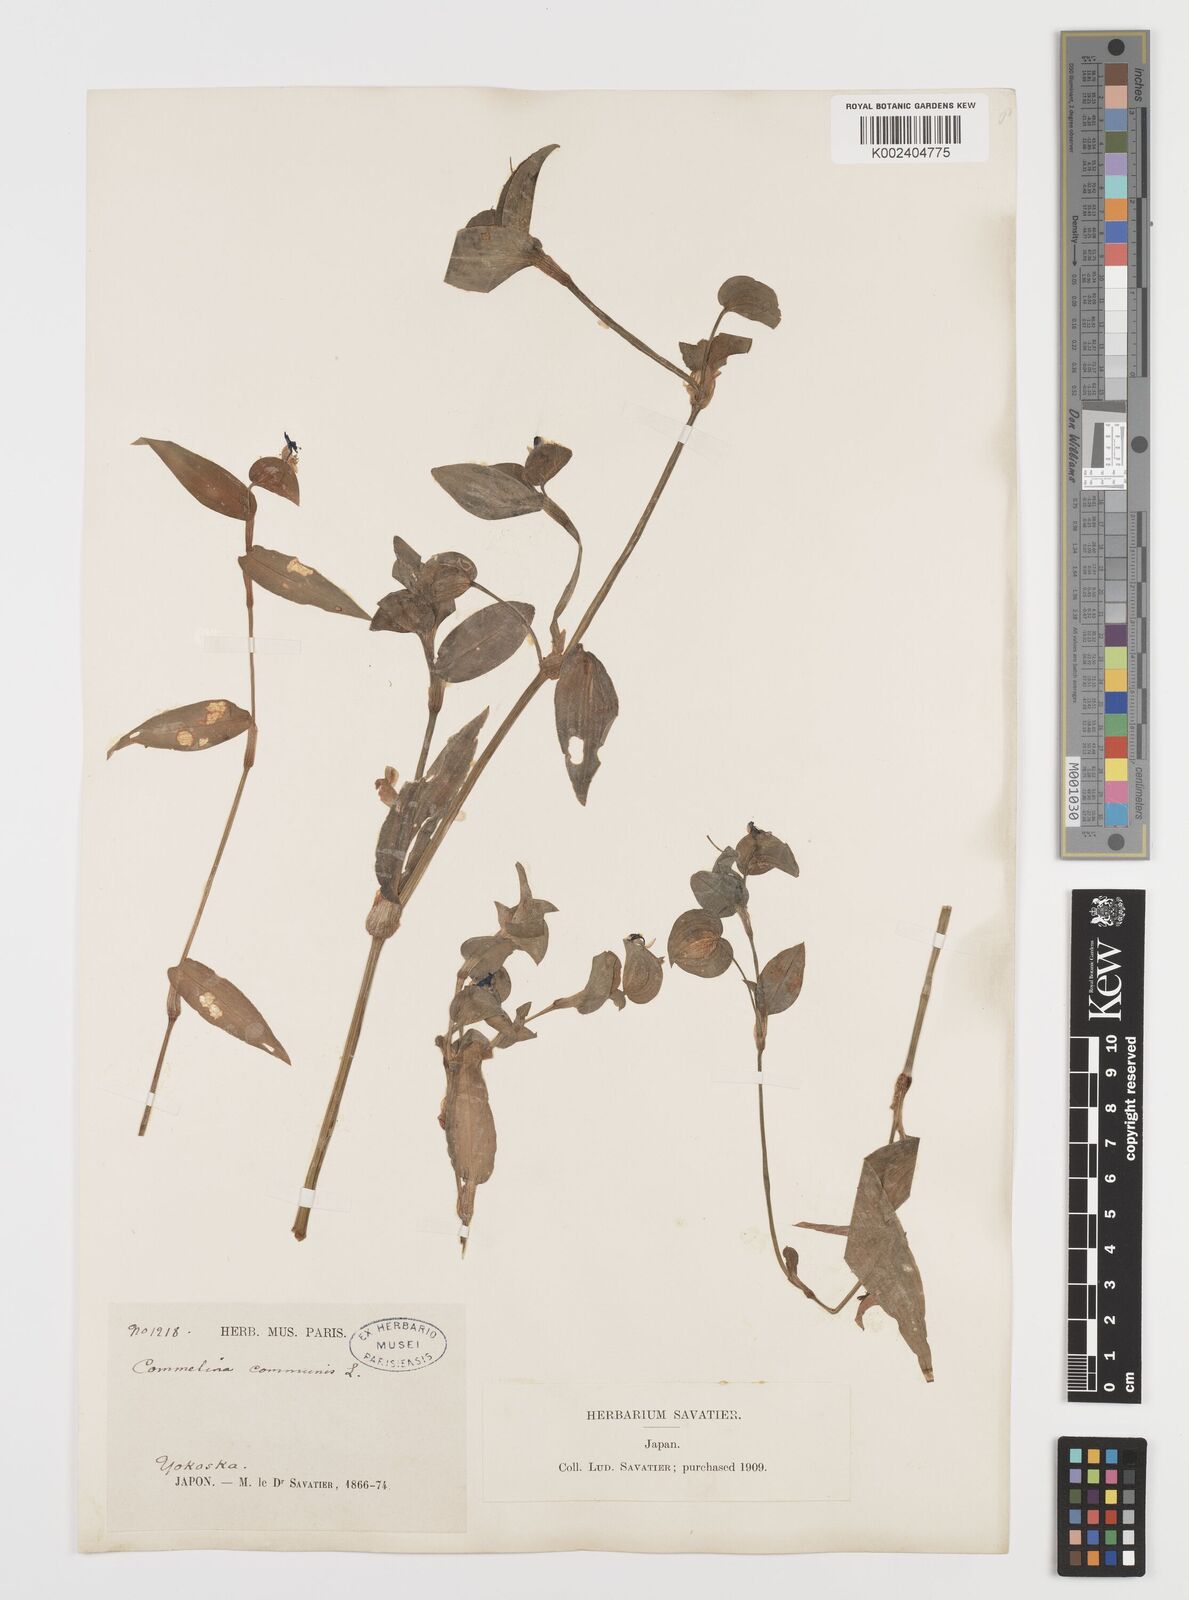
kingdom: Plantae
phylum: Tracheophyta
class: Liliopsida
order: Commelinales
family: Commelinaceae
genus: Commelina
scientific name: Commelina communis
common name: Asiatic dayflower
